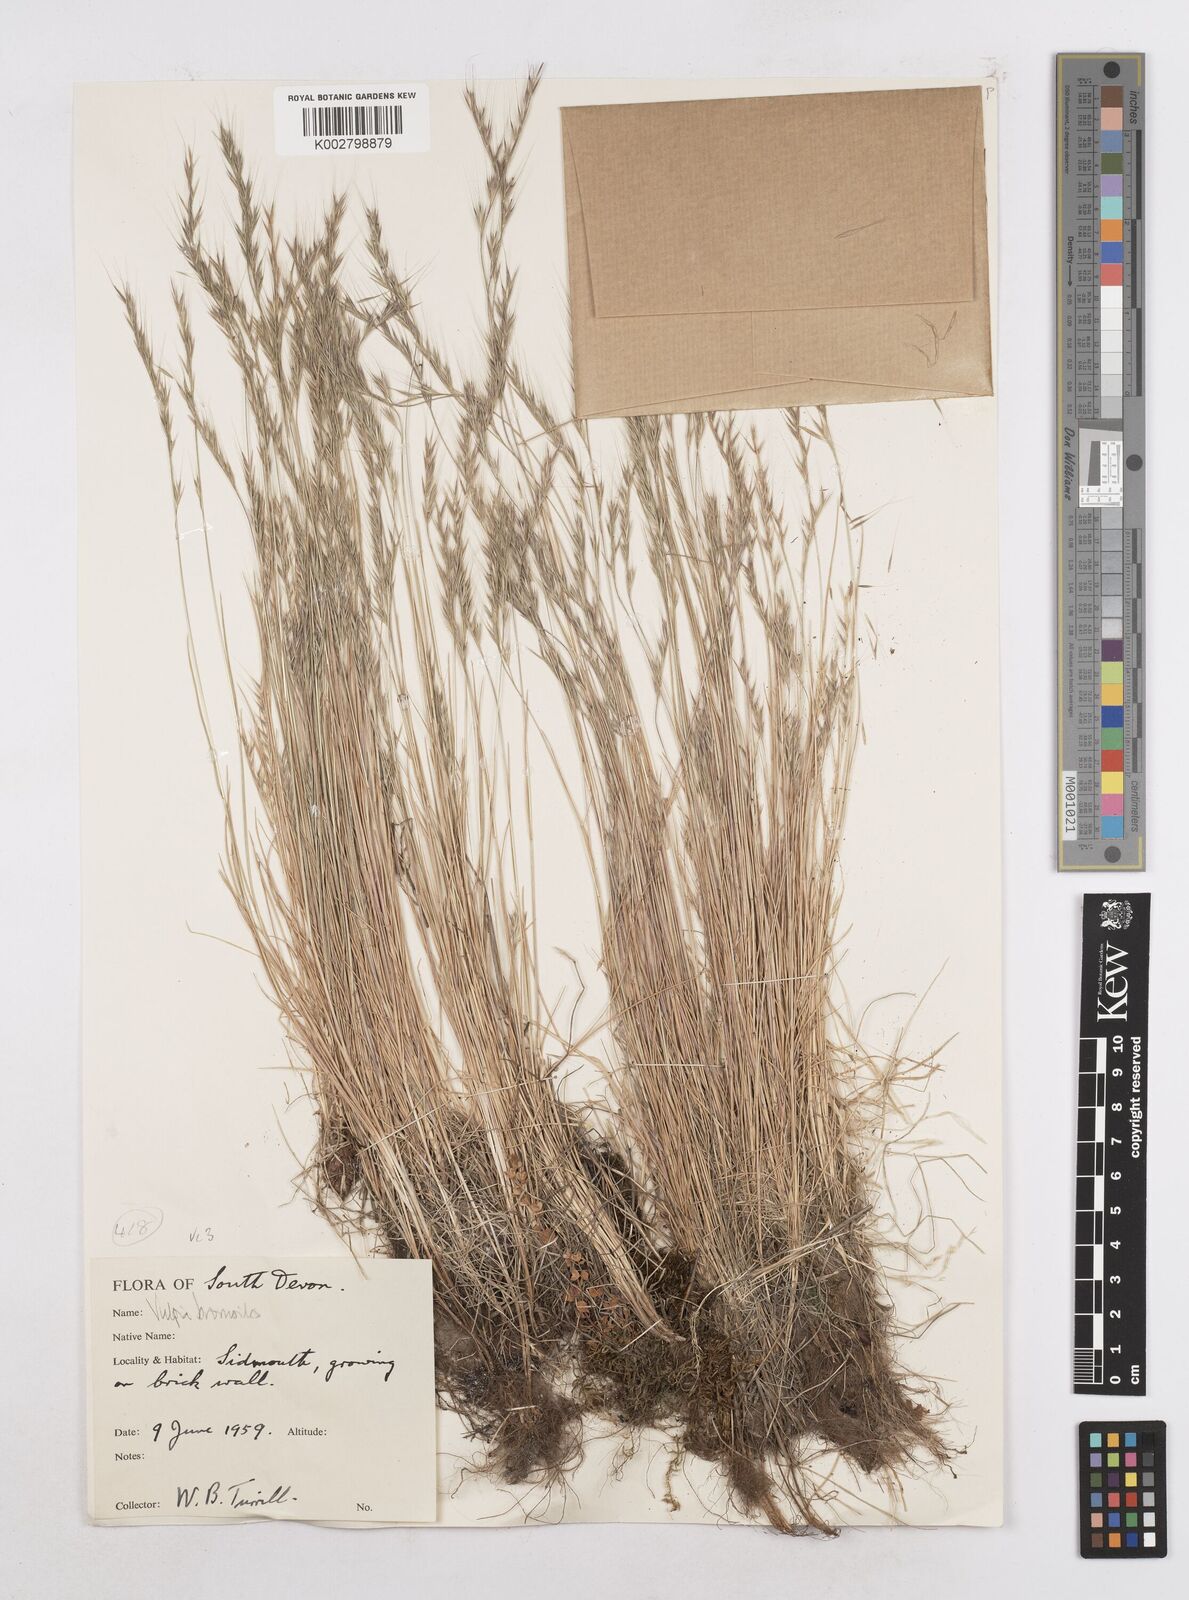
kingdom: Plantae
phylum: Tracheophyta
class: Liliopsida
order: Poales
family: Poaceae
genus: Festuca
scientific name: Festuca bromoides
